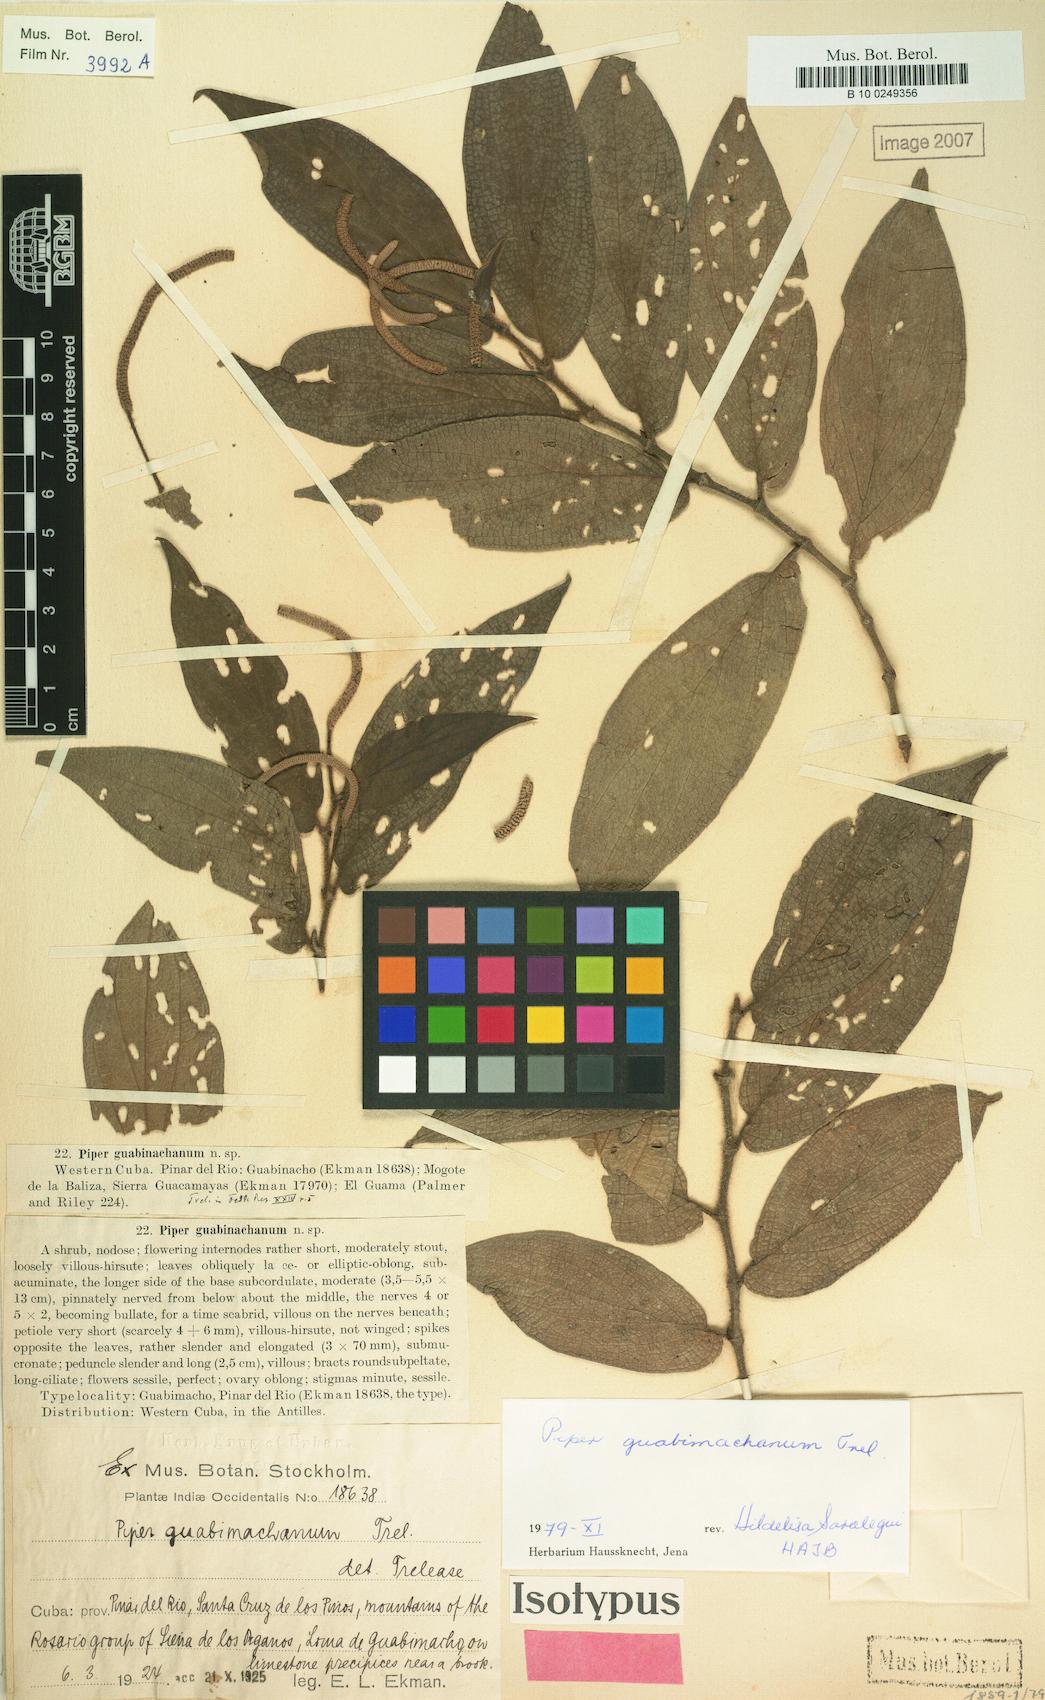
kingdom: Plantae
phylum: Tracheophyta
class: Magnoliopsida
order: Piperales
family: Piperaceae
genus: Piper
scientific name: Piper confusum
